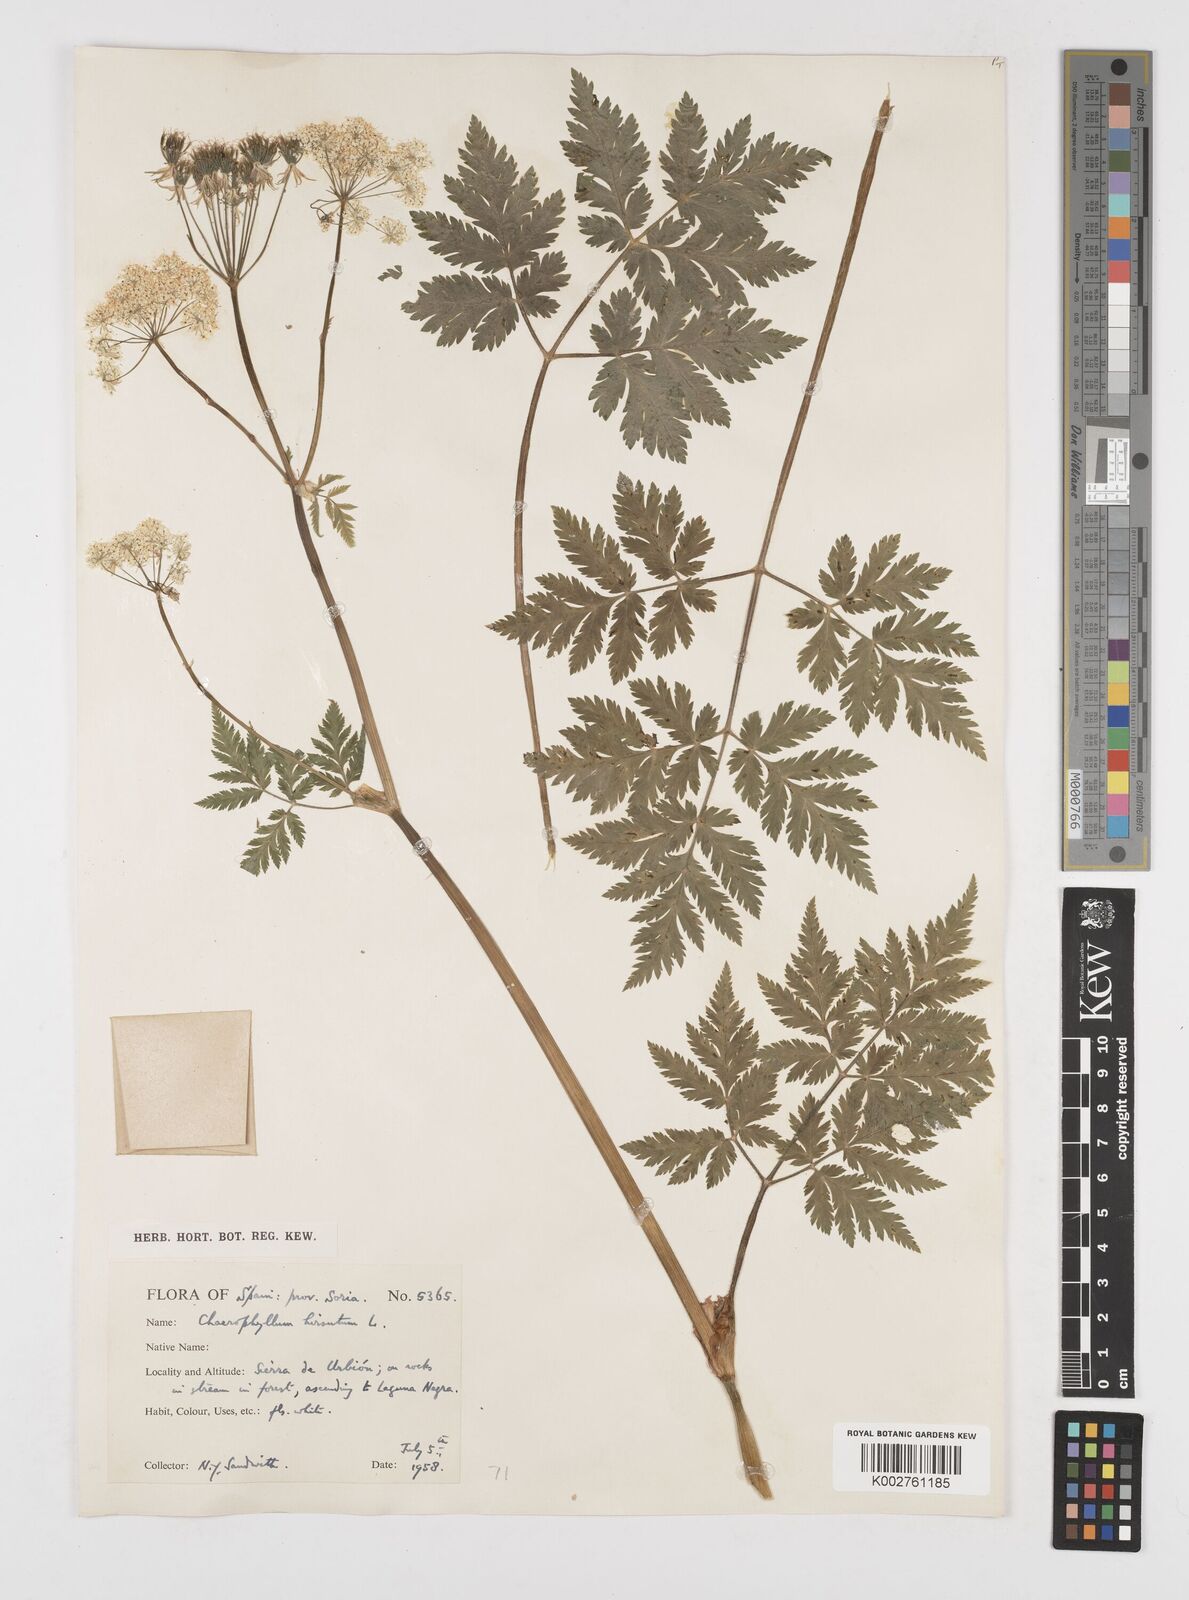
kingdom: Plantae
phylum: Tracheophyta
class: Magnoliopsida
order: Apiales
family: Apiaceae
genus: Chaerophyllum
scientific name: Chaerophyllum hirsutum
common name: Hairy chervil
